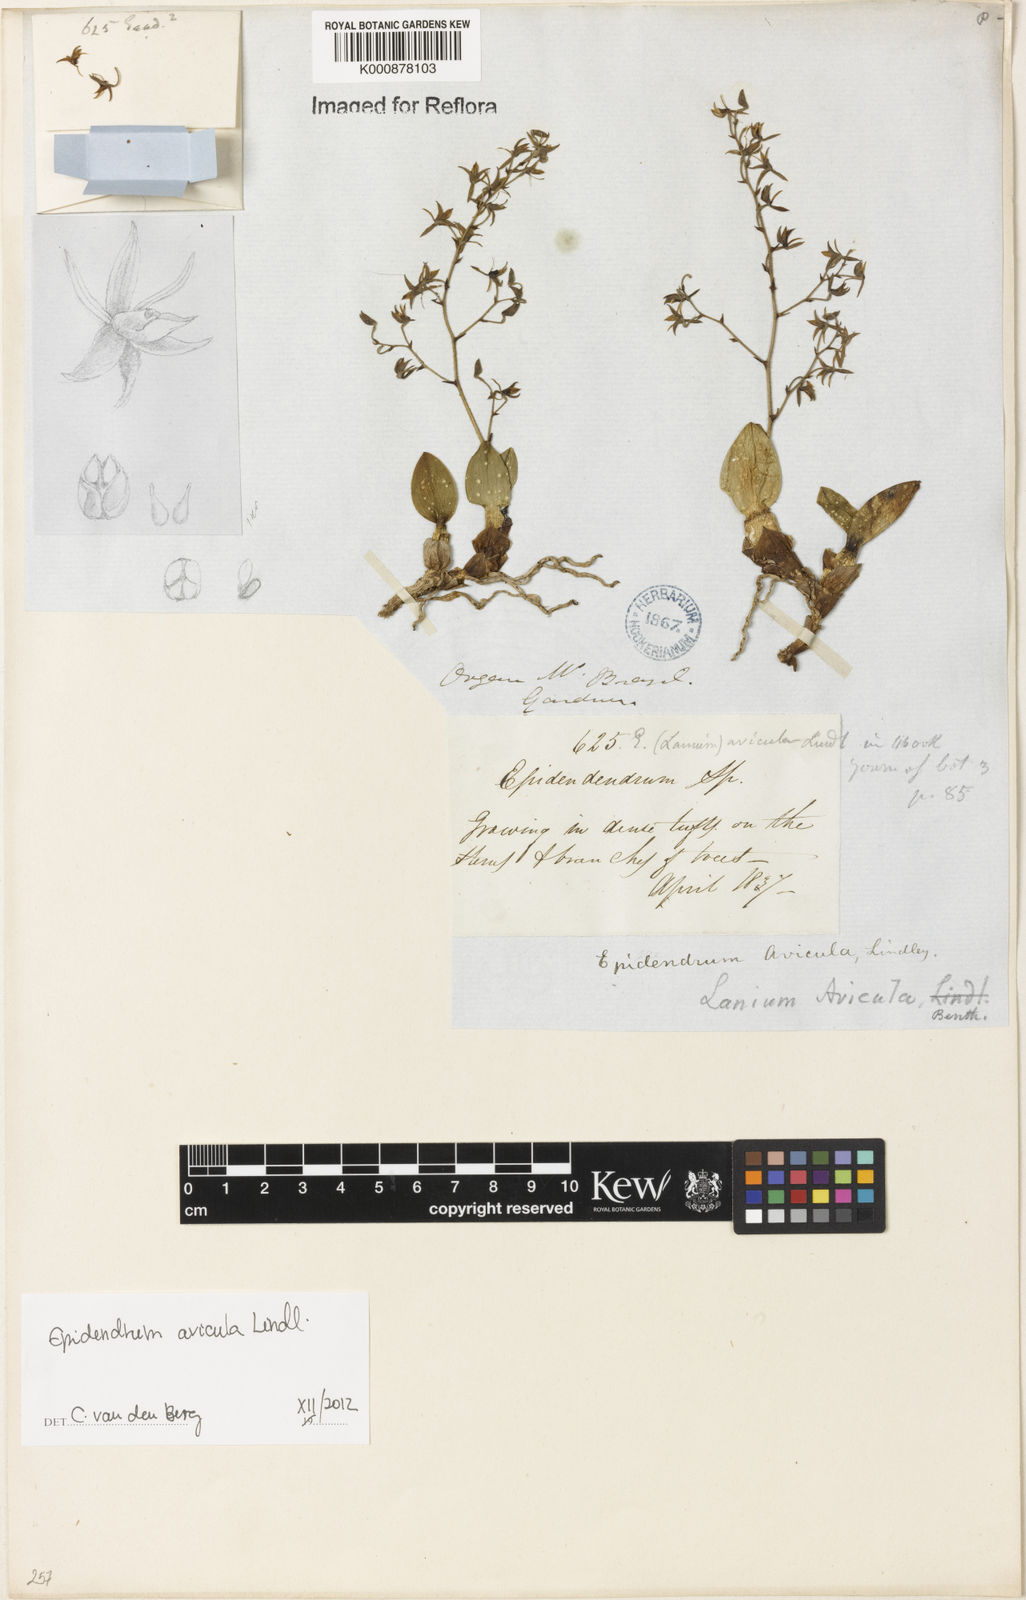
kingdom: Plantae
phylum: Tracheophyta
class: Liliopsida
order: Asparagales
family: Orchidaceae
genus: Epidendrum
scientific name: Epidendrum avicula
